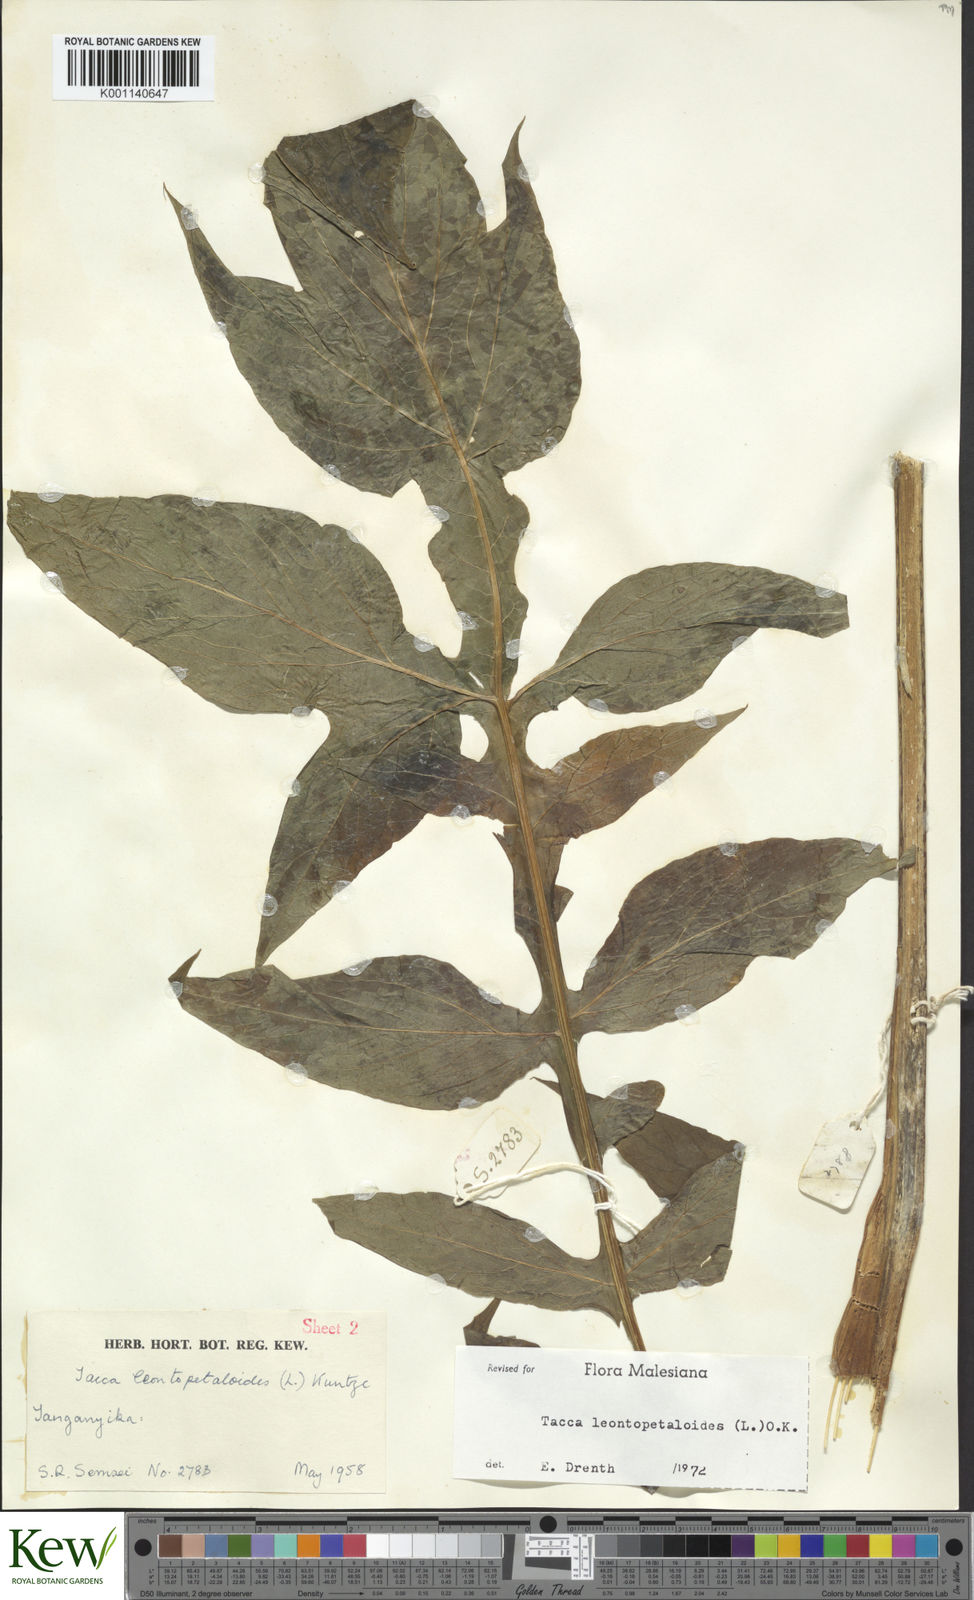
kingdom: Plantae
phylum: Tracheophyta
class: Liliopsida
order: Dioscoreales
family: Dioscoreaceae
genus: Tacca
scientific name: Tacca leontopetaloides
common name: Arrowroot
